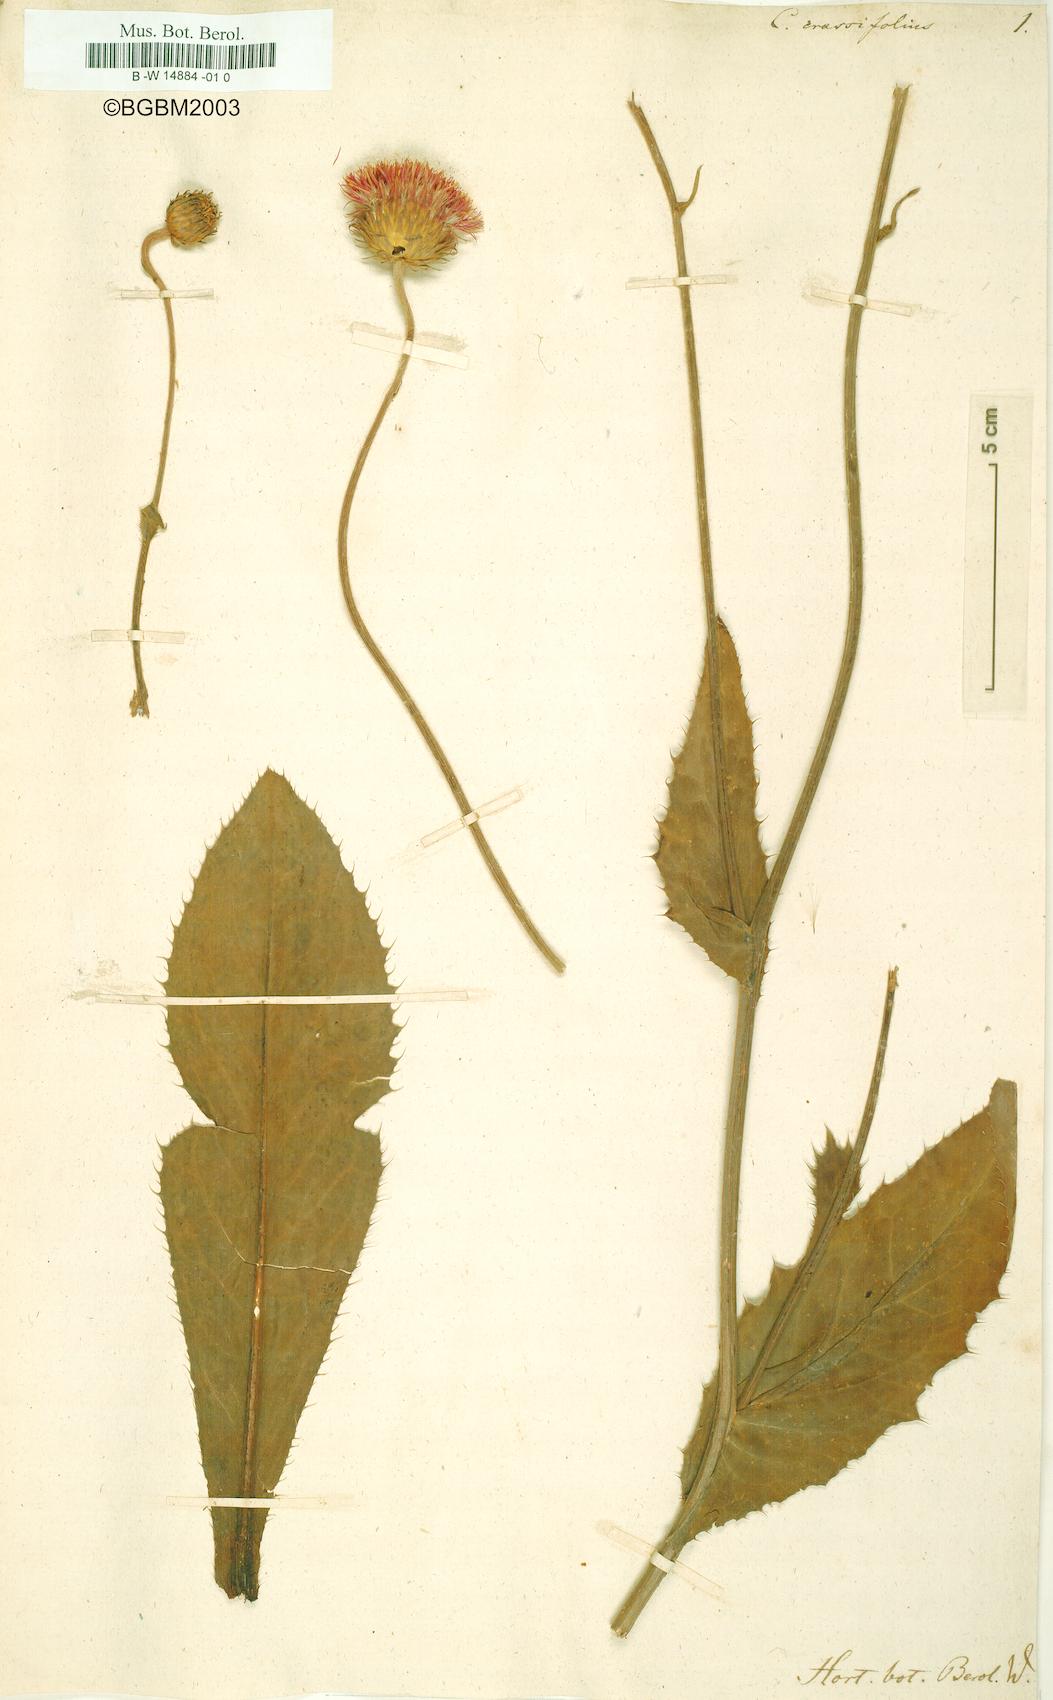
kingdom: Plantae
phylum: Tracheophyta
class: Magnoliopsida
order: Asterales
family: Asteraceae
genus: Carduus
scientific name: Carduus defloratus
